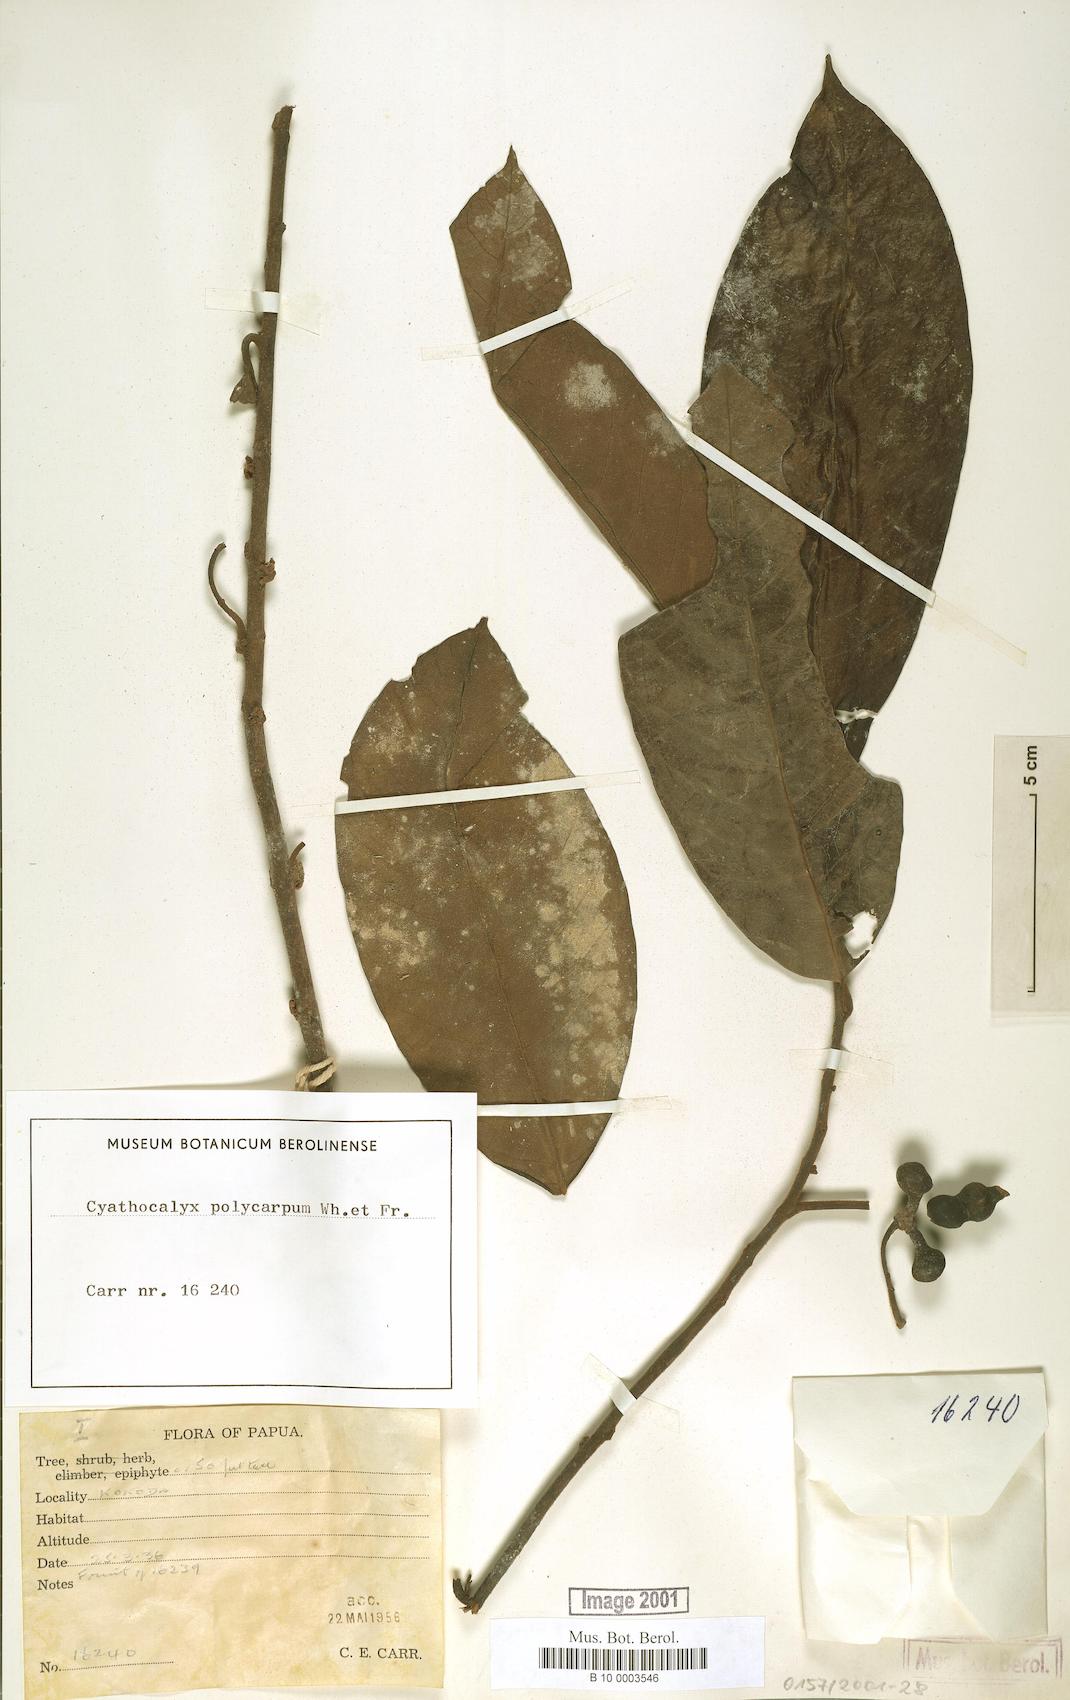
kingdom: Plantae
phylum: Tracheophyta
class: Magnoliopsida
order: Magnoliales
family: Annonaceae
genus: Drepananthus
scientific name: Drepananthus polycarpus
